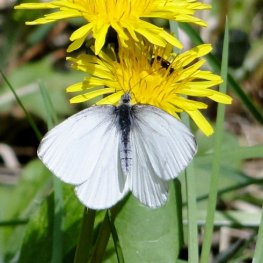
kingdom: Animalia
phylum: Arthropoda
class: Insecta
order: Lepidoptera
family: Pieridae
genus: Pieris
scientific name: Pieris oleracea
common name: Mustard White
